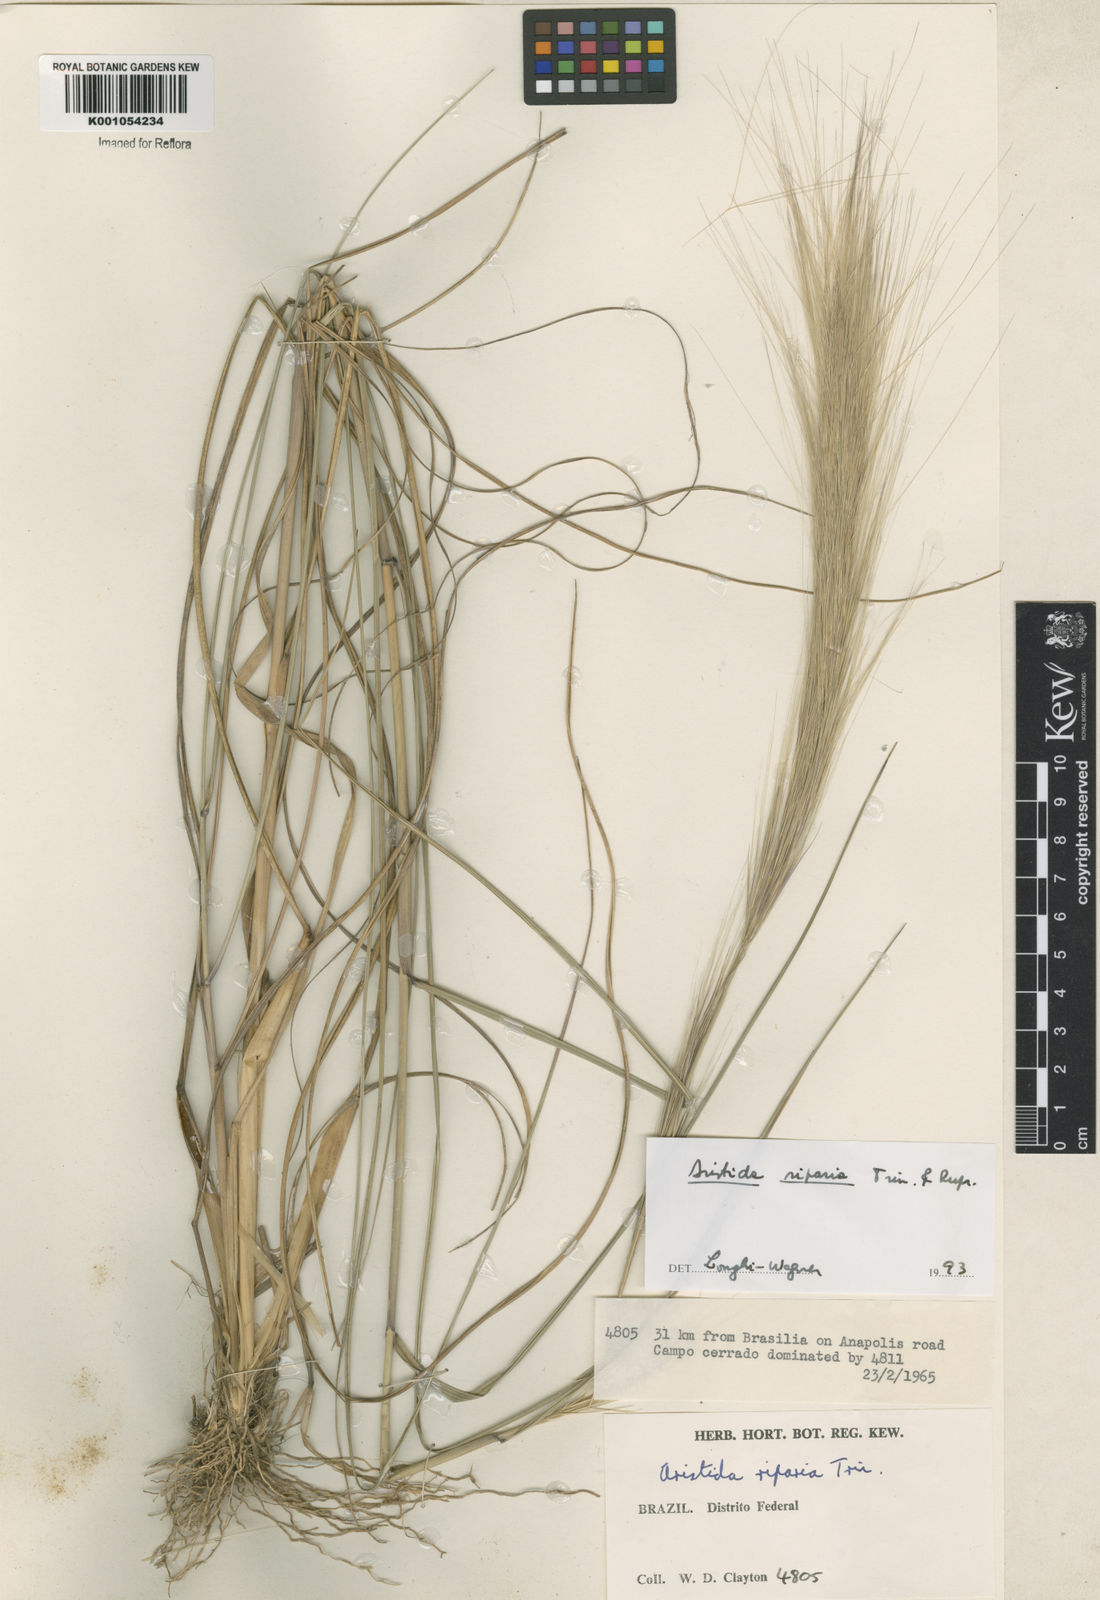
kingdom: Plantae
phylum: Tracheophyta
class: Liliopsida
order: Poales
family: Poaceae
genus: Aristida
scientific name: Aristida riparia
